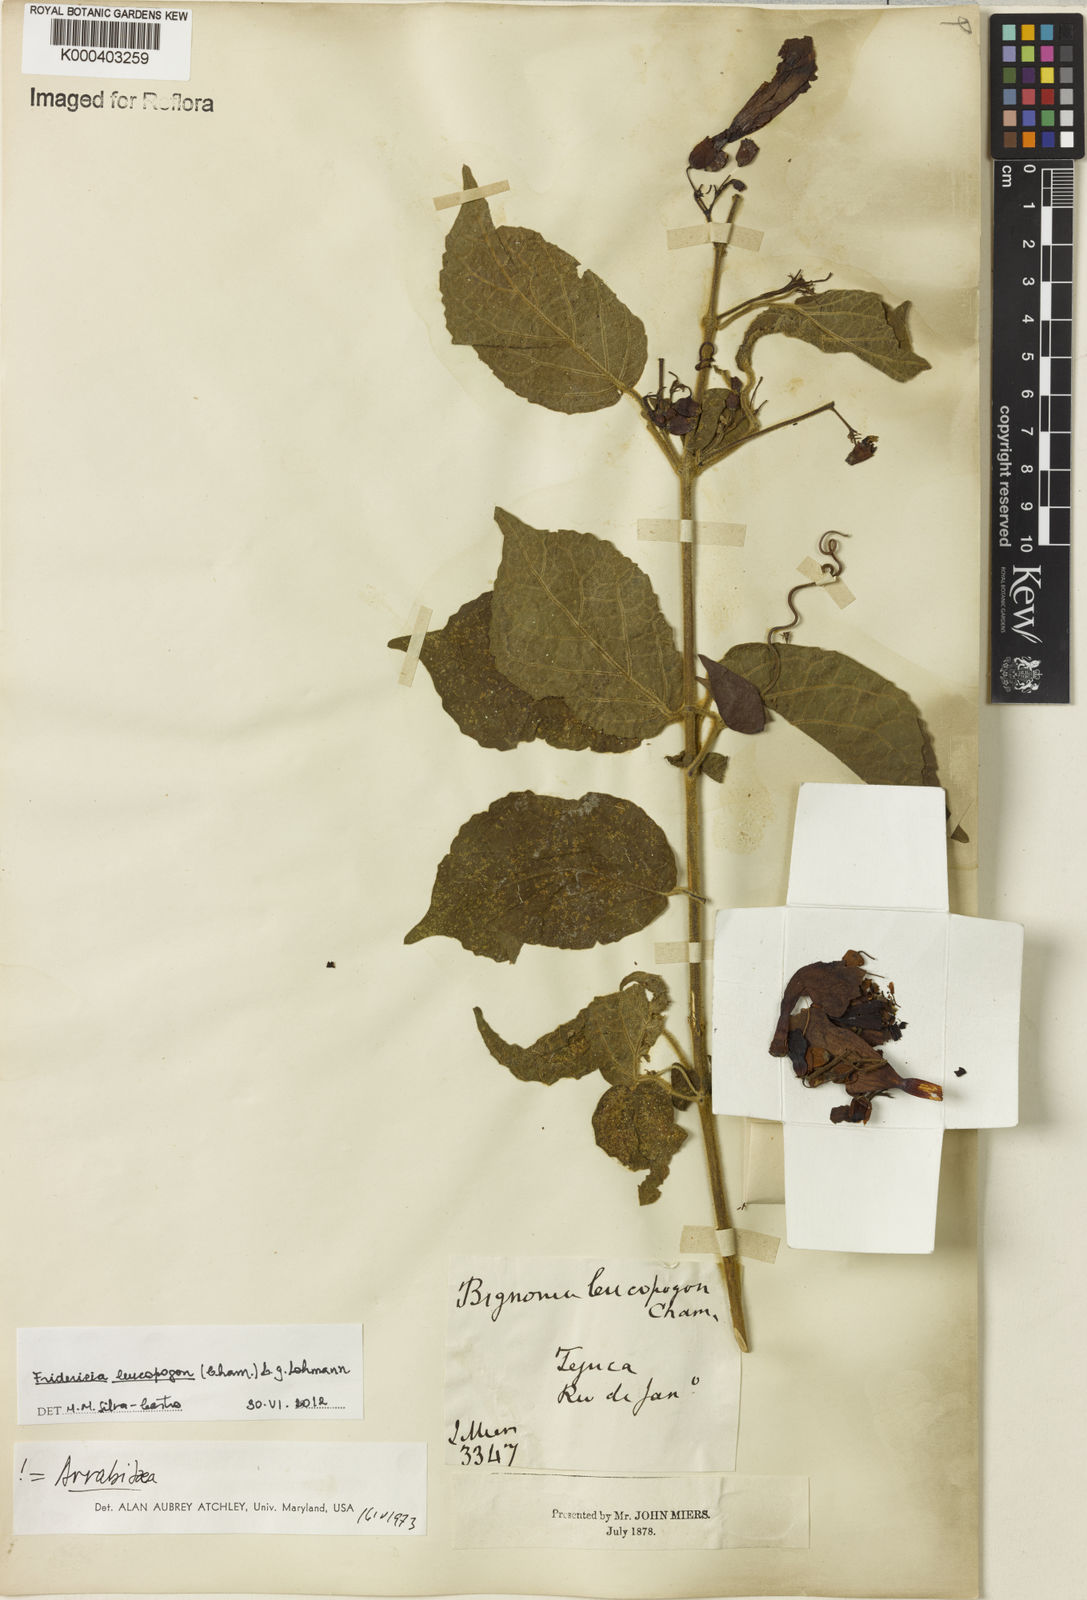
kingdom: Plantae
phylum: Tracheophyta
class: Magnoliopsida
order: Lamiales
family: Bignoniaceae
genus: Fridericia
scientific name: Fridericia leucopogon
